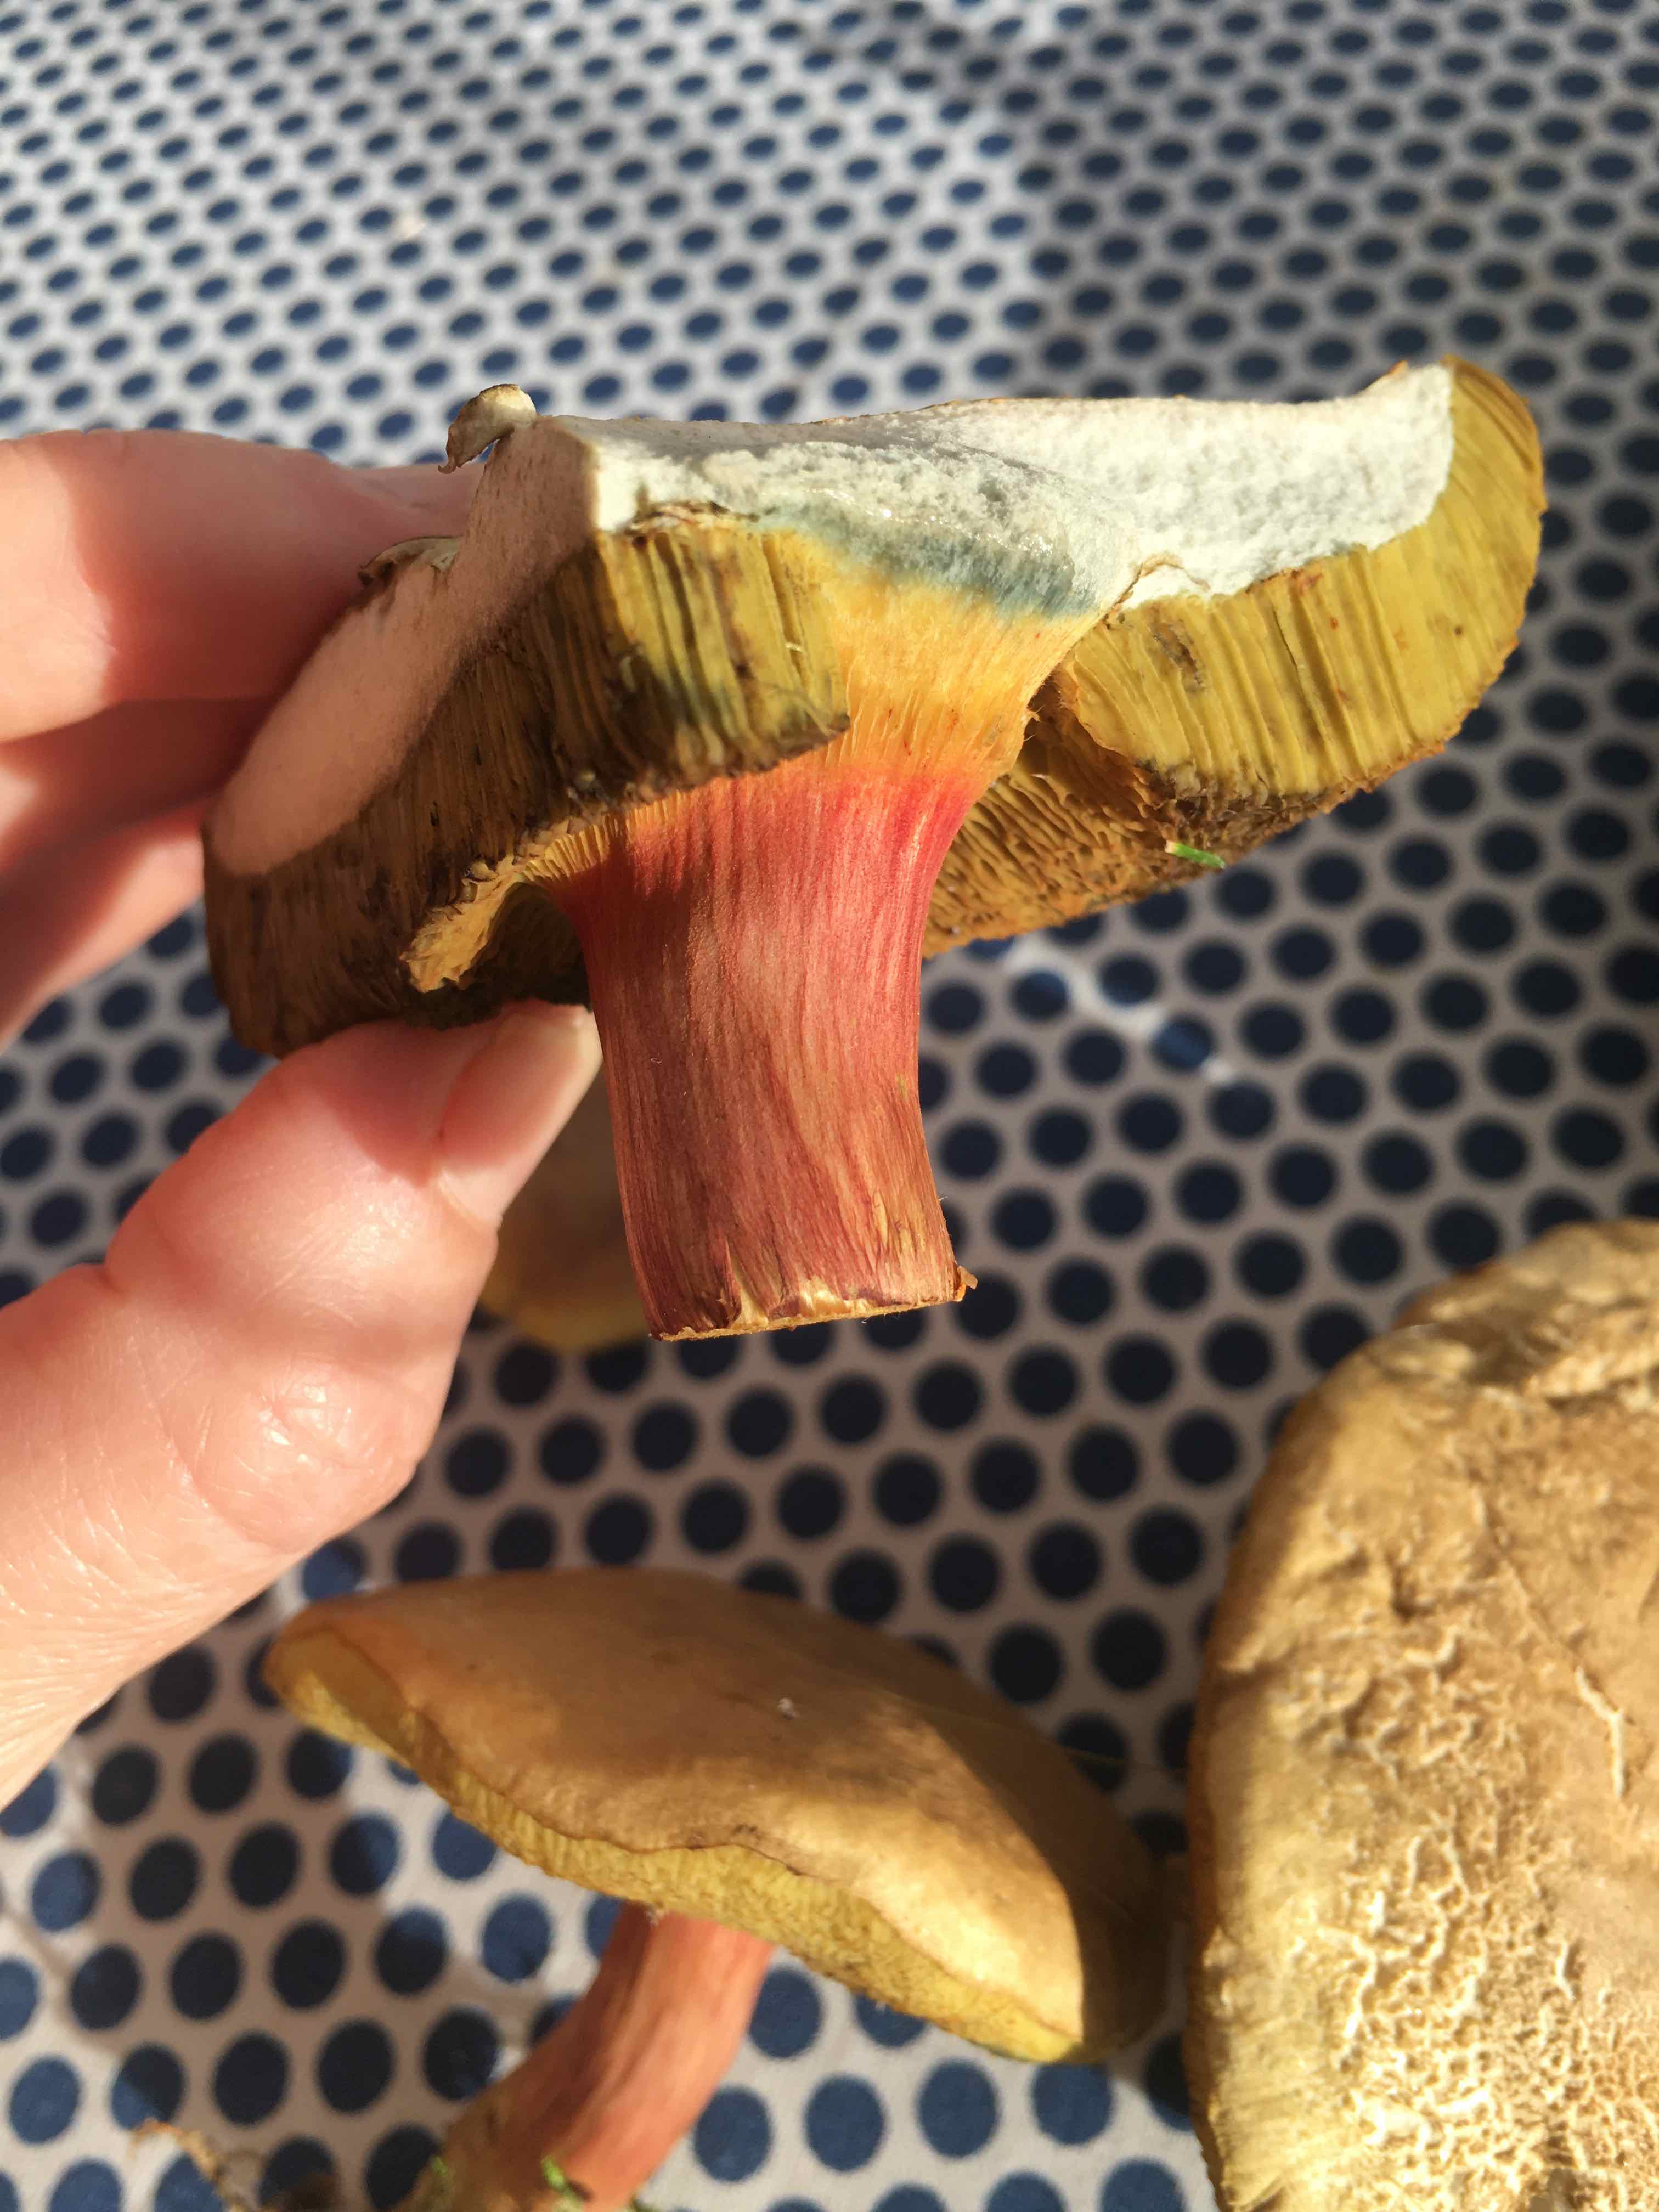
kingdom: Fungi
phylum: Basidiomycota
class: Agaricomycetes
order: Boletales
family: Boletaceae
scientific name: Boletaceae
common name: rørhatfamilien
